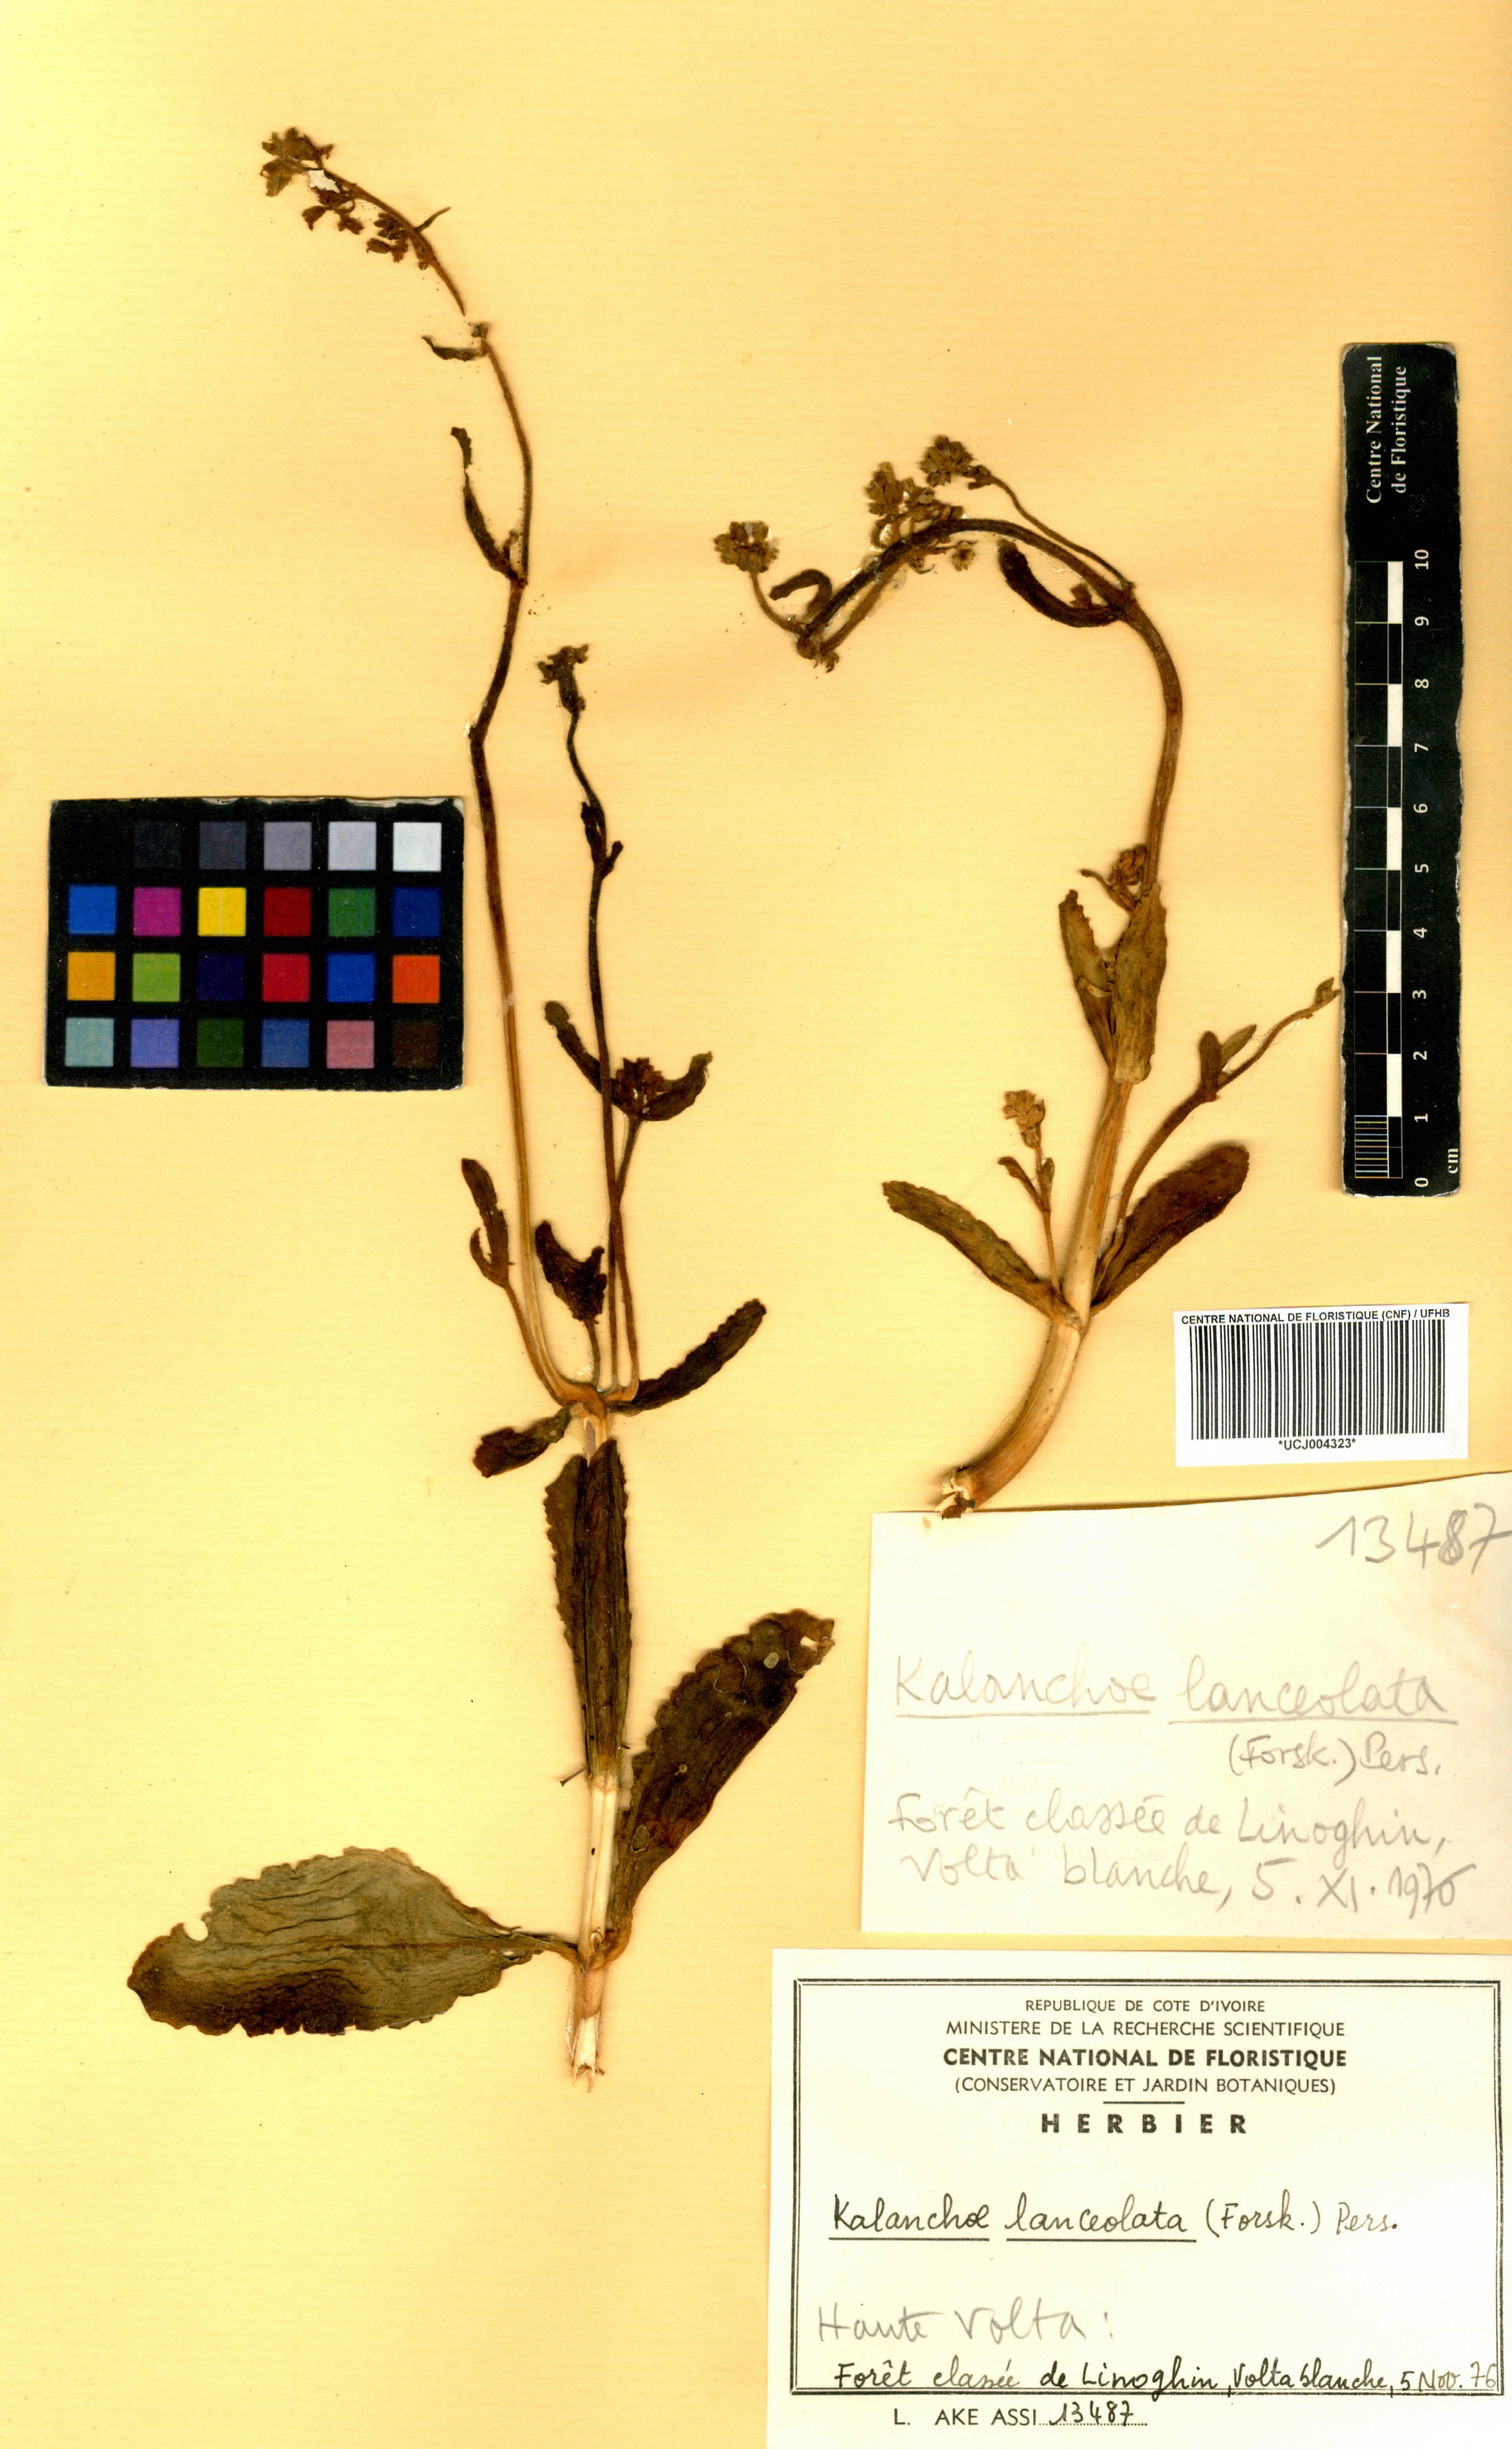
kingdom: Plantae
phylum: Tracheophyta
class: Magnoliopsida
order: Saxifragales
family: Crassulaceae
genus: Kalanchoe
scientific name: Kalanchoe lanceolata
